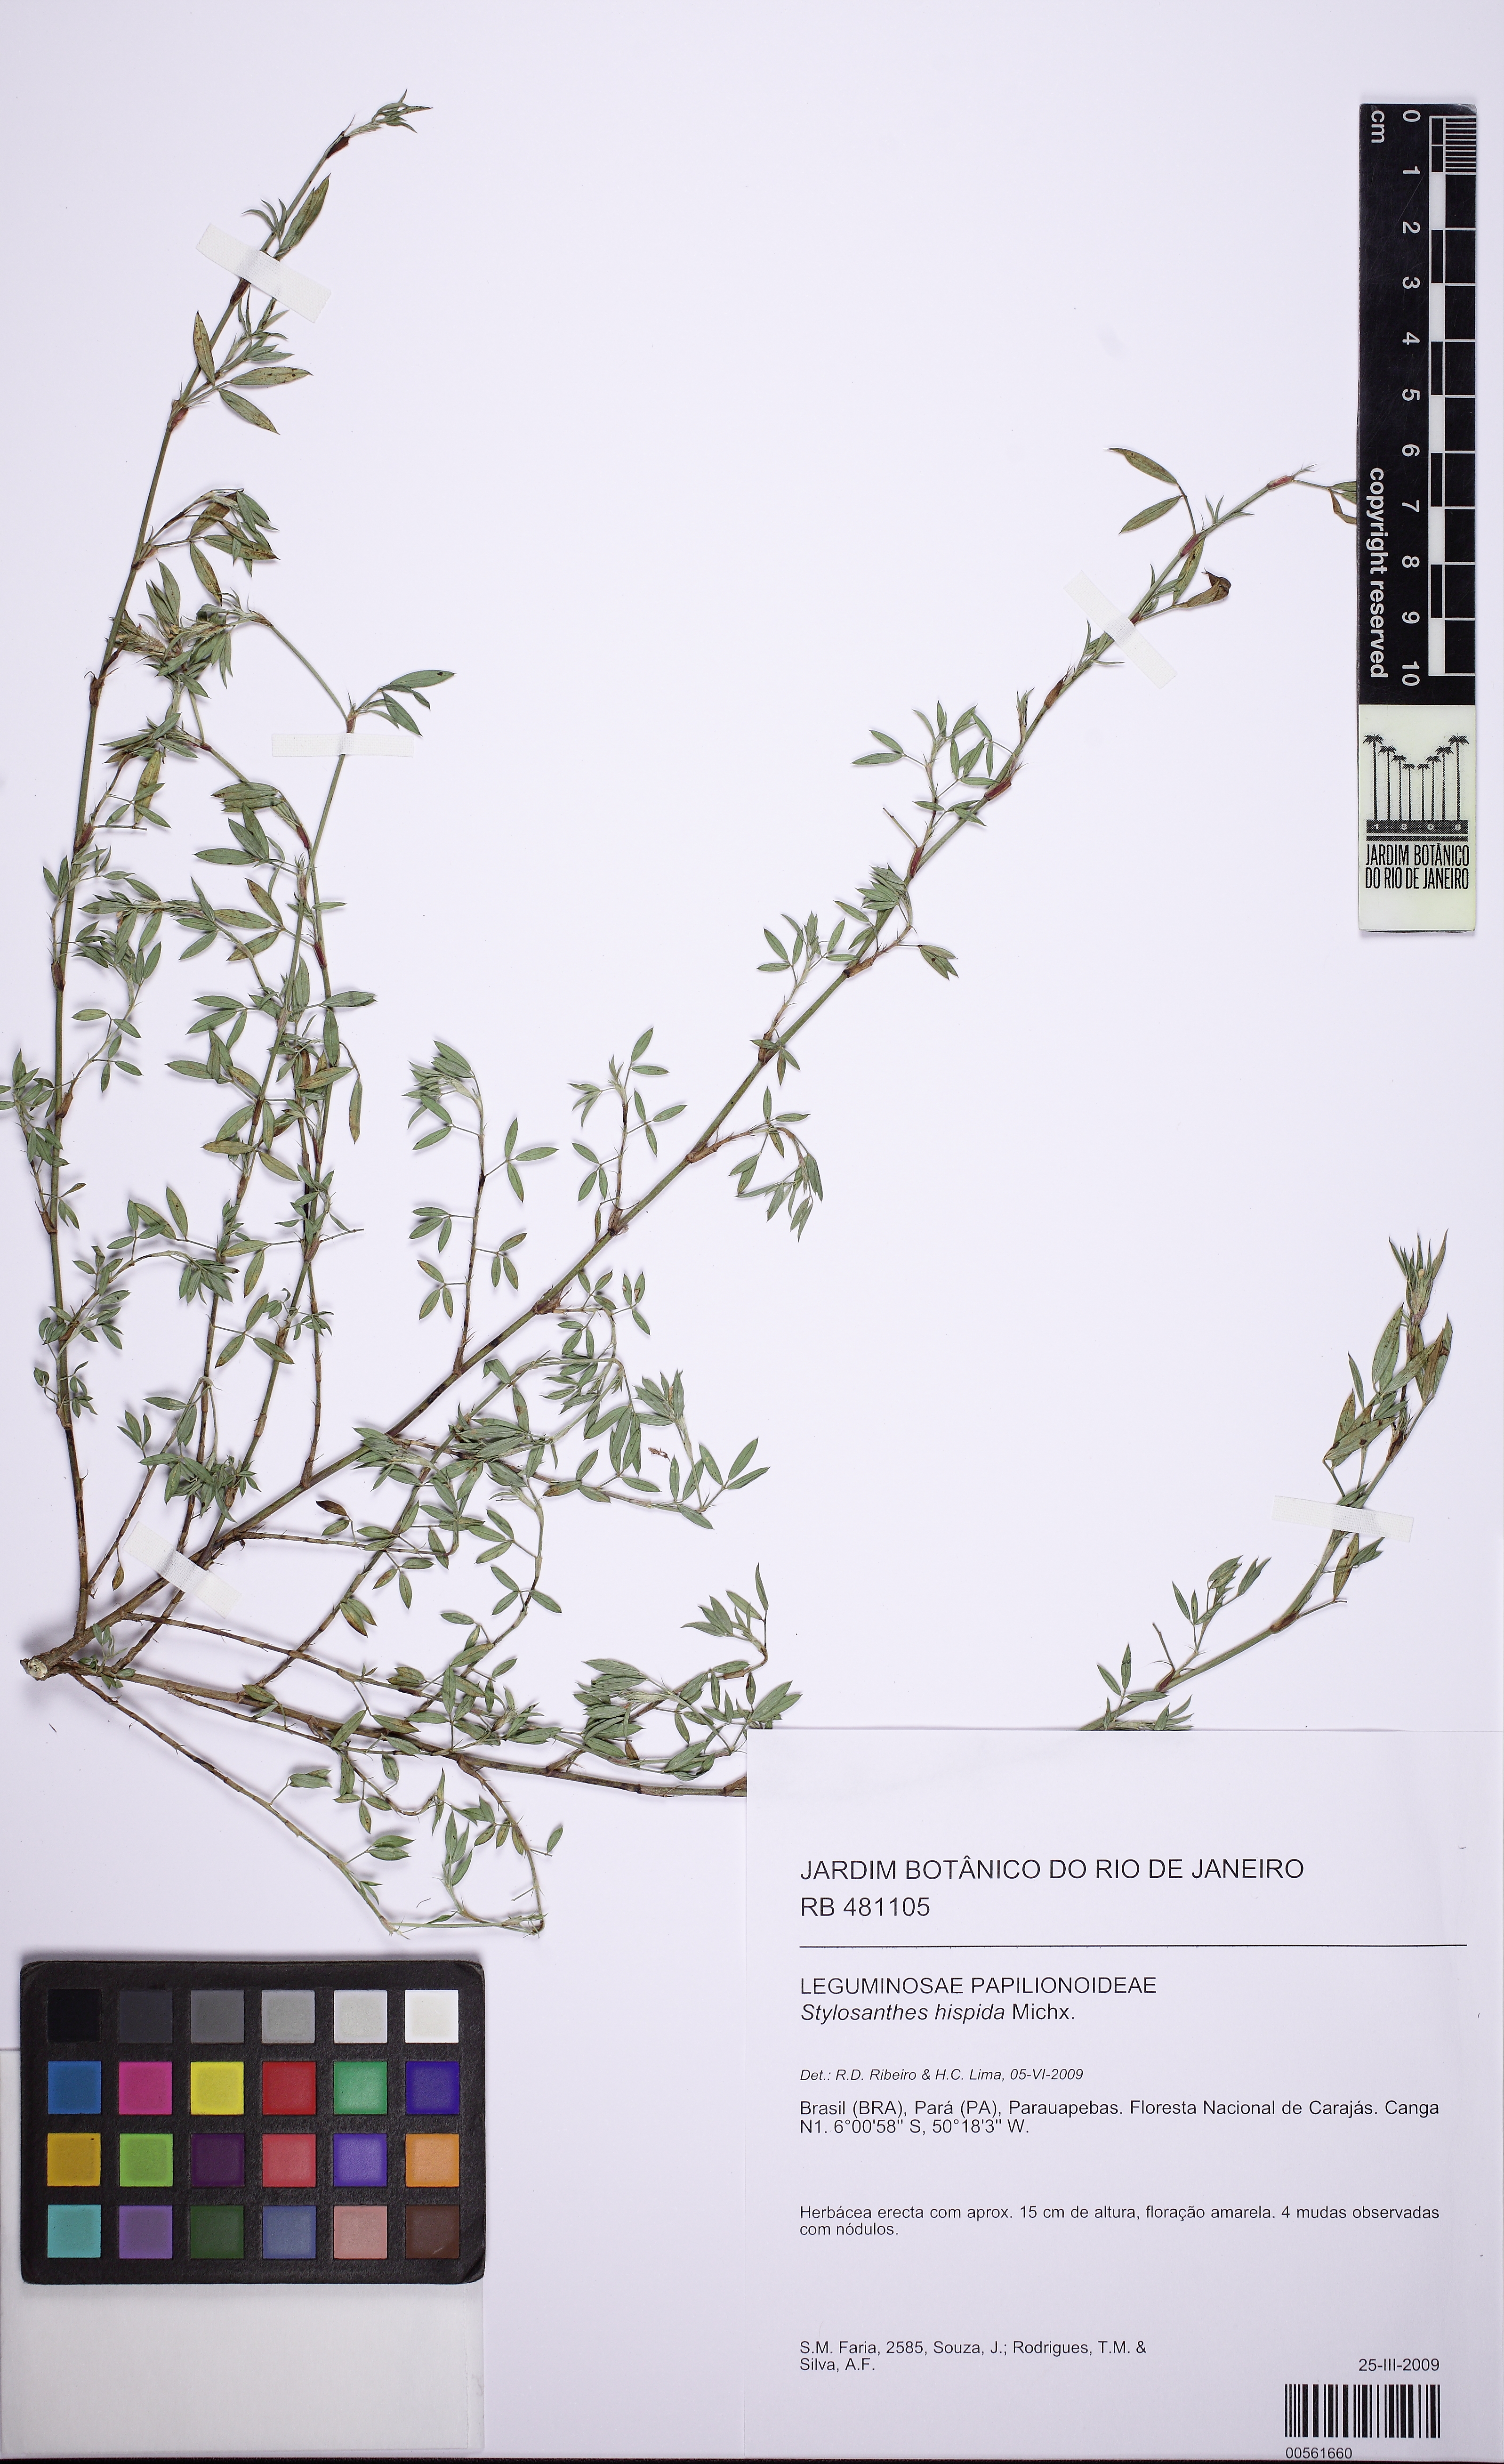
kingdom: Plantae
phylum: Tracheophyta
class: Magnoliopsida
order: Fabales
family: Fabaceae
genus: Stylosanthes
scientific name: Stylosanthes humilis
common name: Townsville stylo
